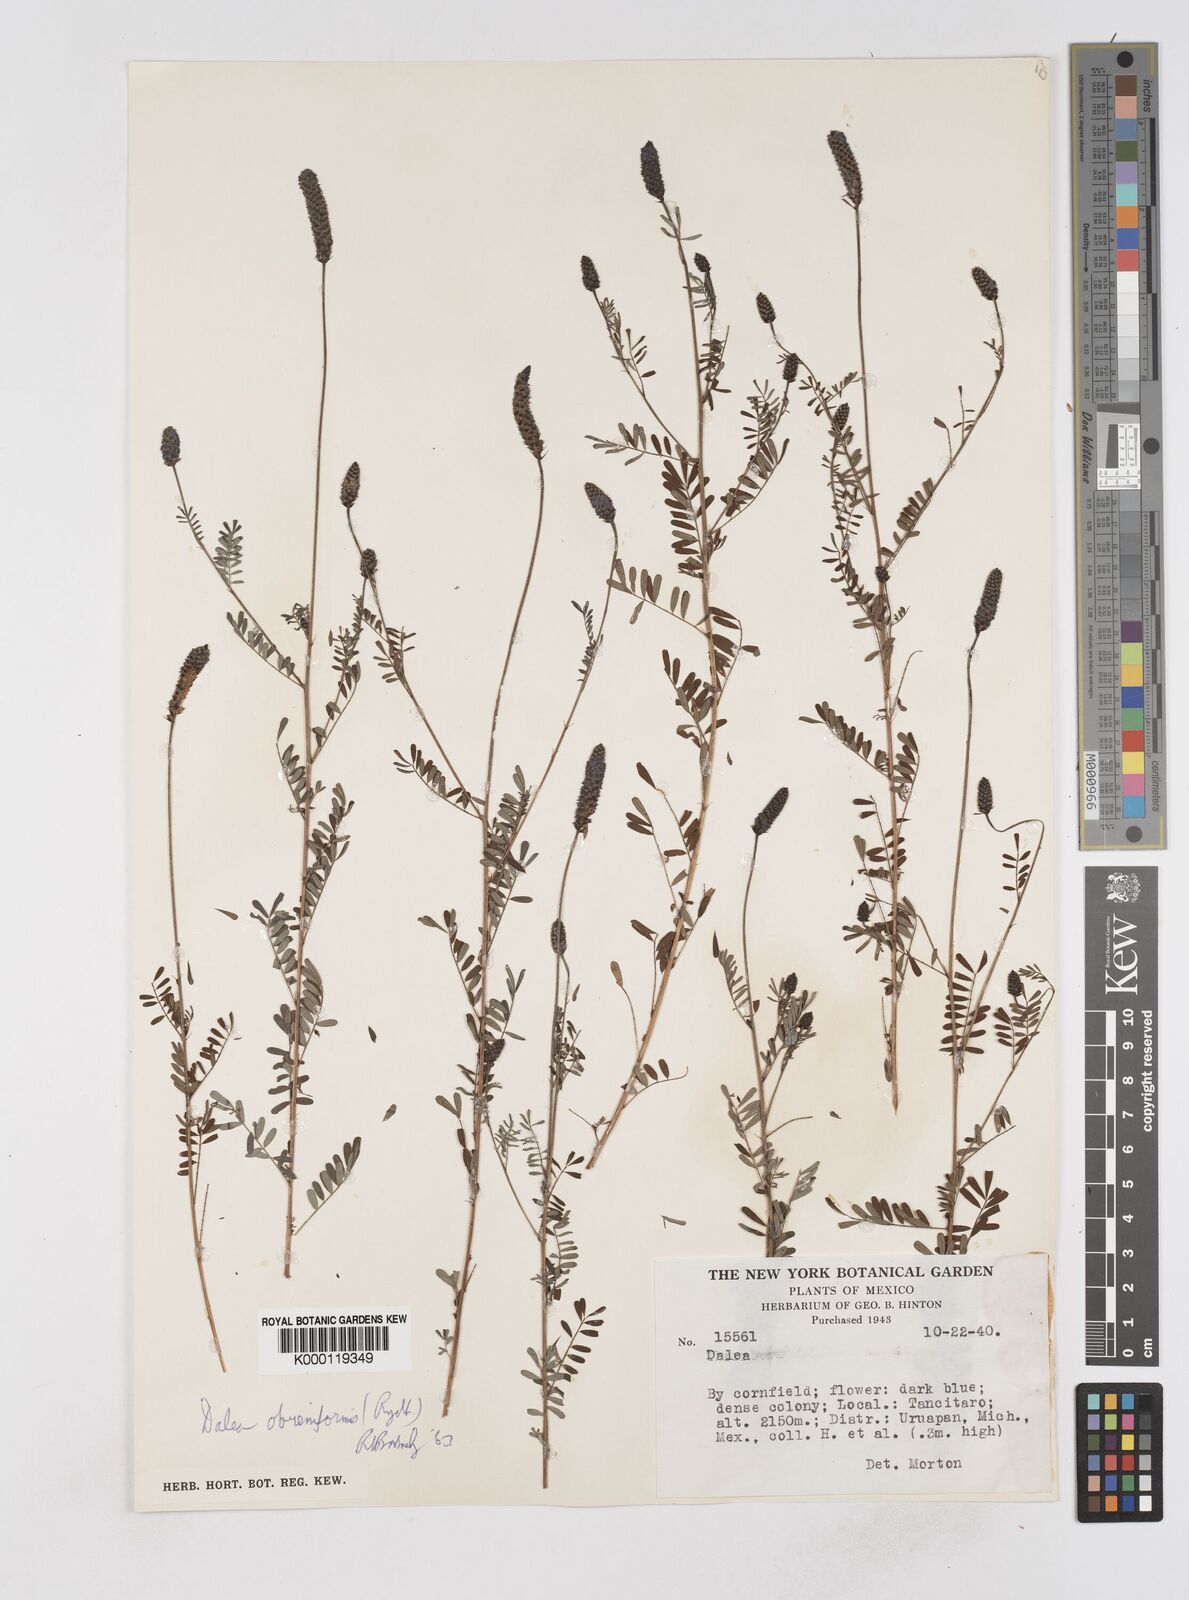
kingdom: Plantae
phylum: Tracheophyta
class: Magnoliopsida
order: Fabales
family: Fabaceae
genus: Dalea
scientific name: Dalea obreniformis
